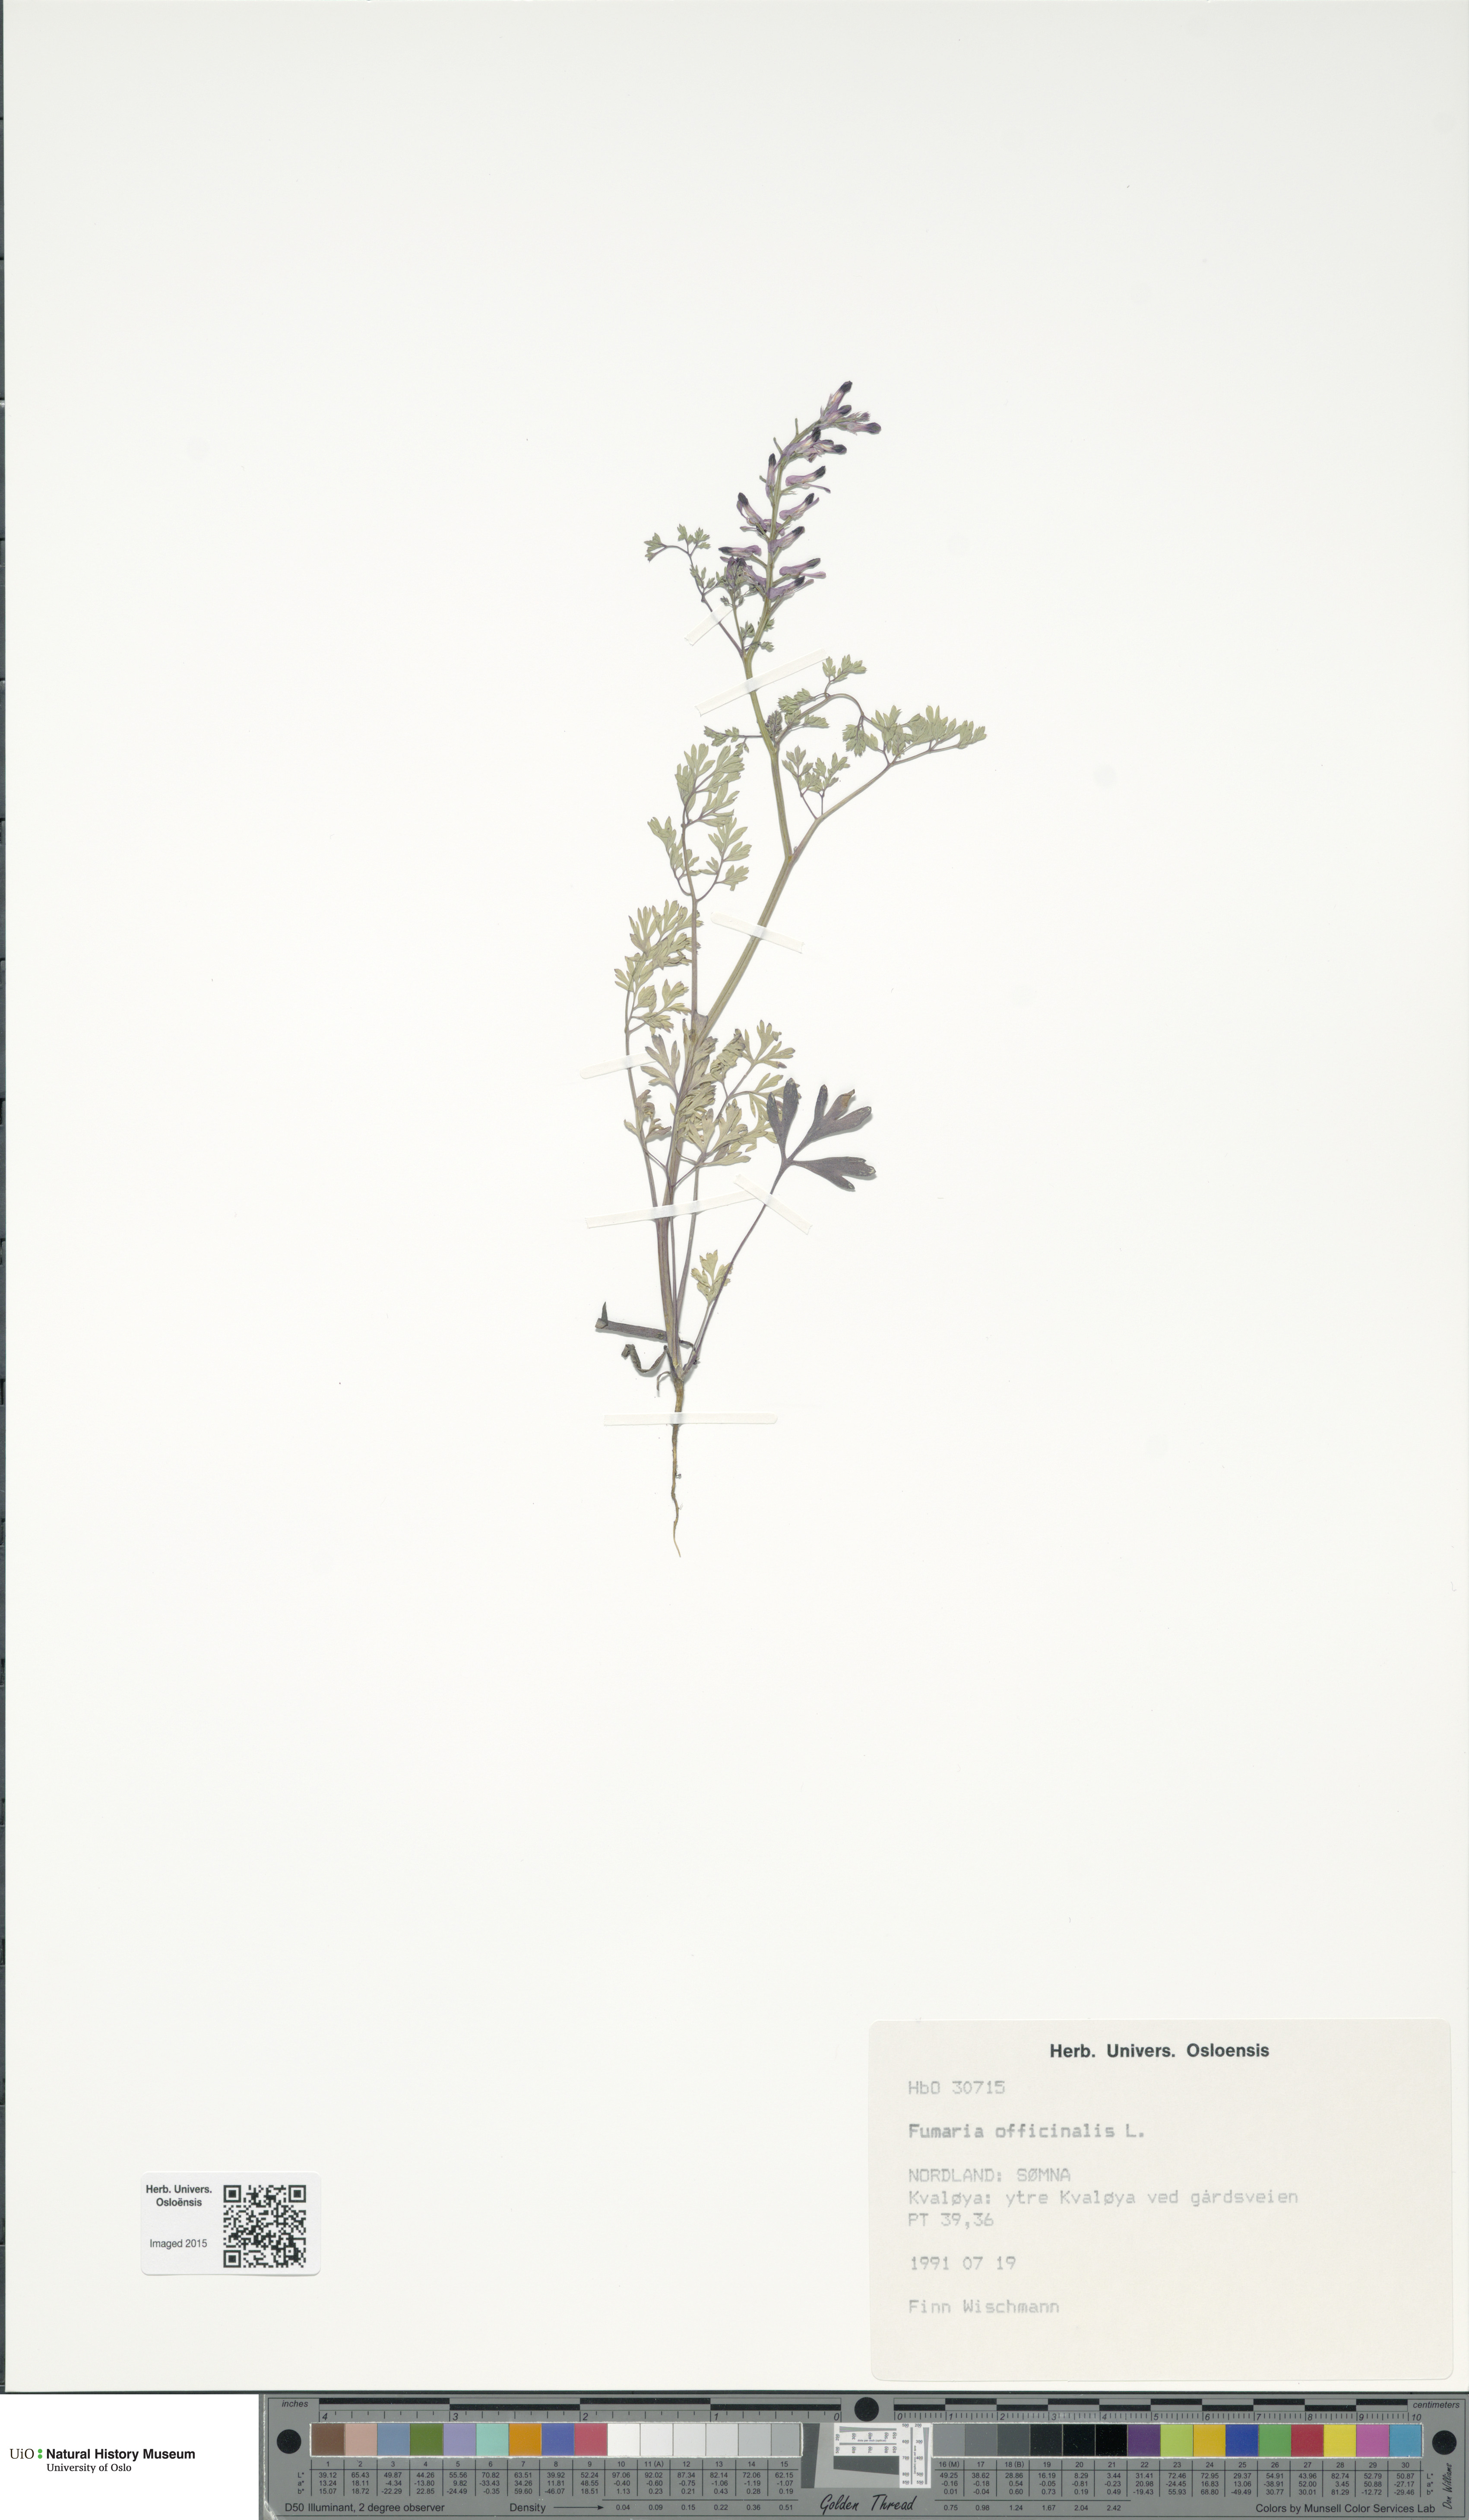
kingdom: Plantae
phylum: Tracheophyta
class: Magnoliopsida
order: Ranunculales
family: Papaveraceae
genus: Fumaria
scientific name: Fumaria officinalis
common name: Common fumitory
